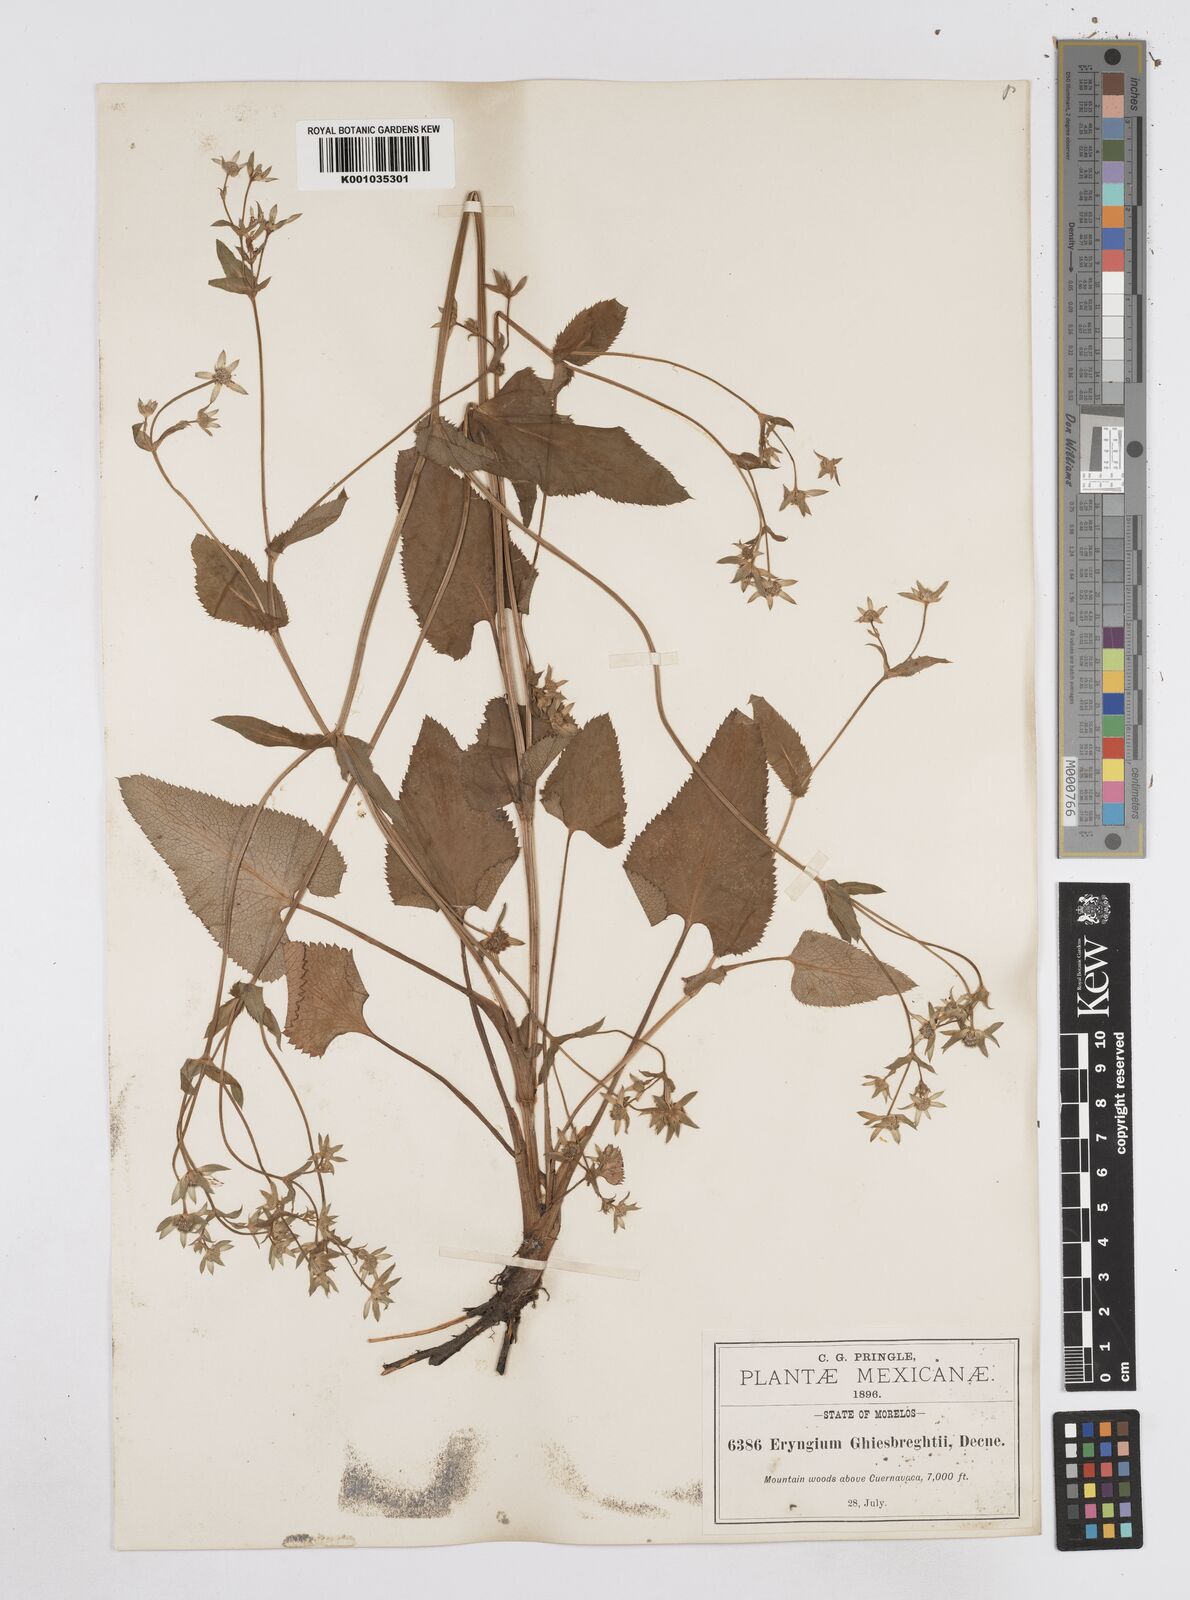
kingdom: Plantae
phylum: Tracheophyta
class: Magnoliopsida
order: Apiales
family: Apiaceae
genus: Eryngium
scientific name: Eryngium ghiesbreghtii
